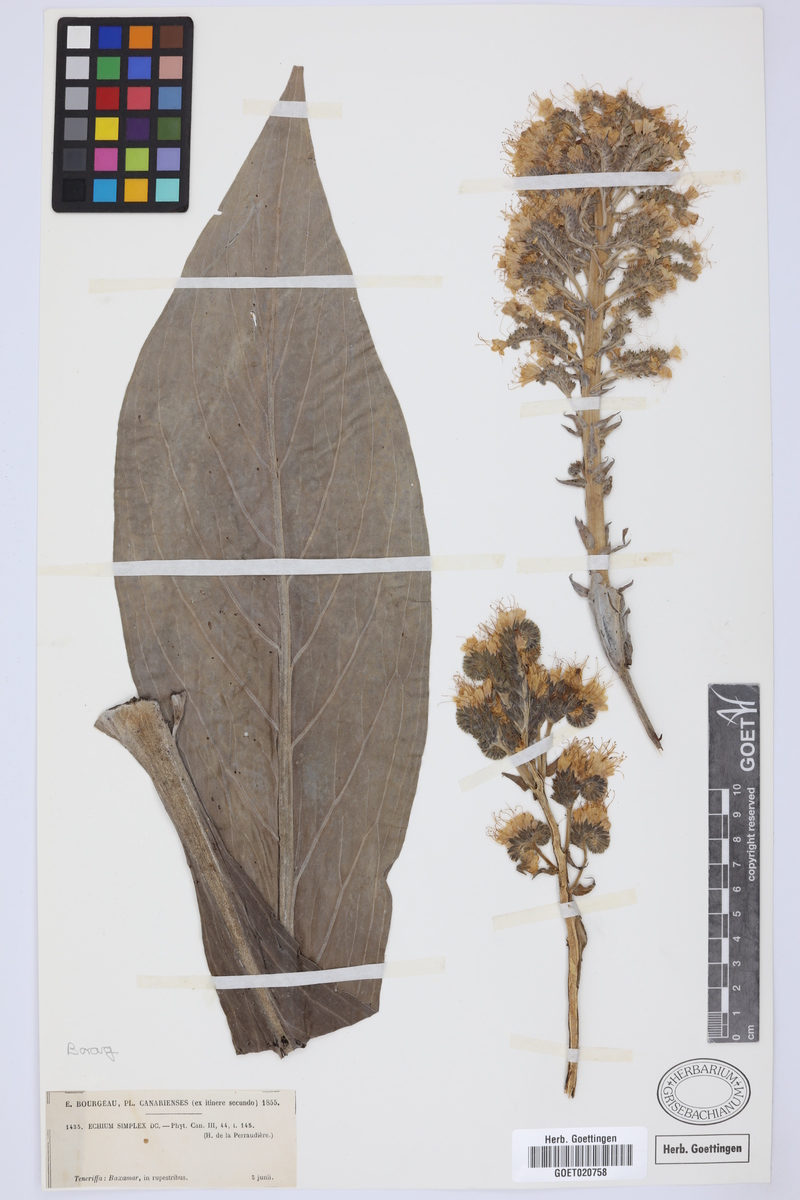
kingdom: Plantae
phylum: Tracheophyta
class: Magnoliopsida
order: Boraginales
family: Boraginaceae
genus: Echium
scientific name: Echium simplex
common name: Pride-of-tenerife
